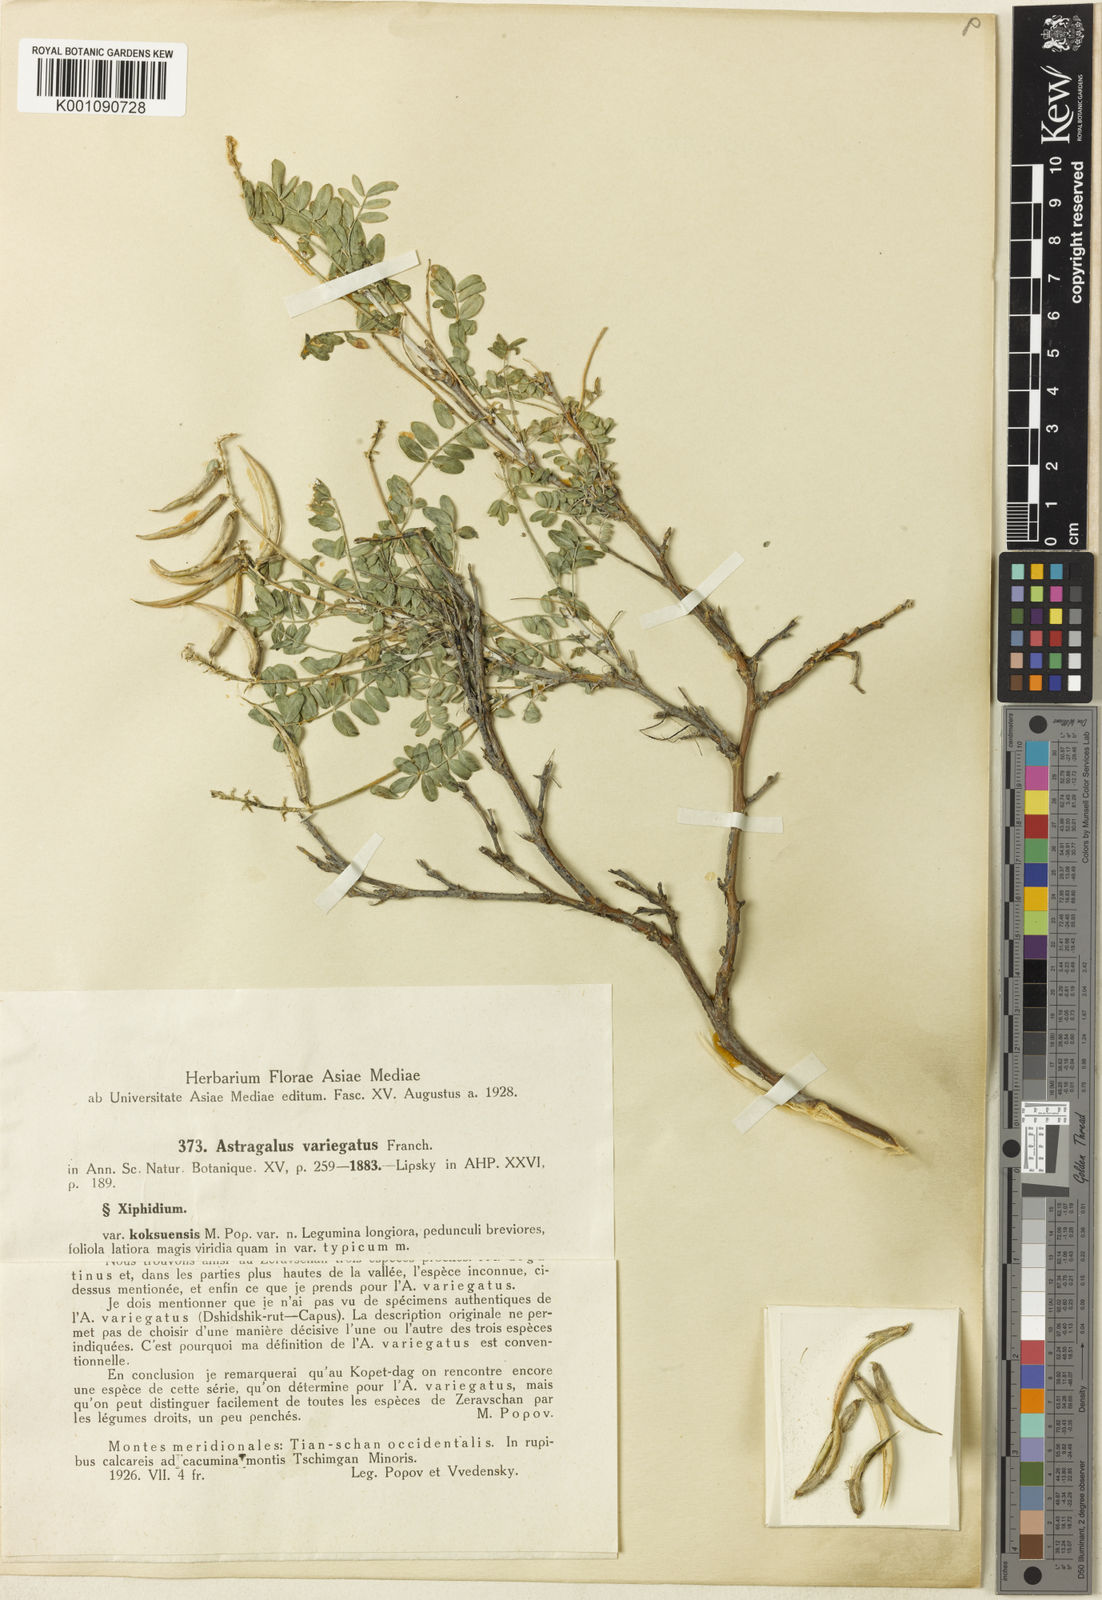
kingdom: Plantae
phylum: Tracheophyta
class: Magnoliopsida
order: Fabales
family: Fabaceae
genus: Astragalus
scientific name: Astragalus
